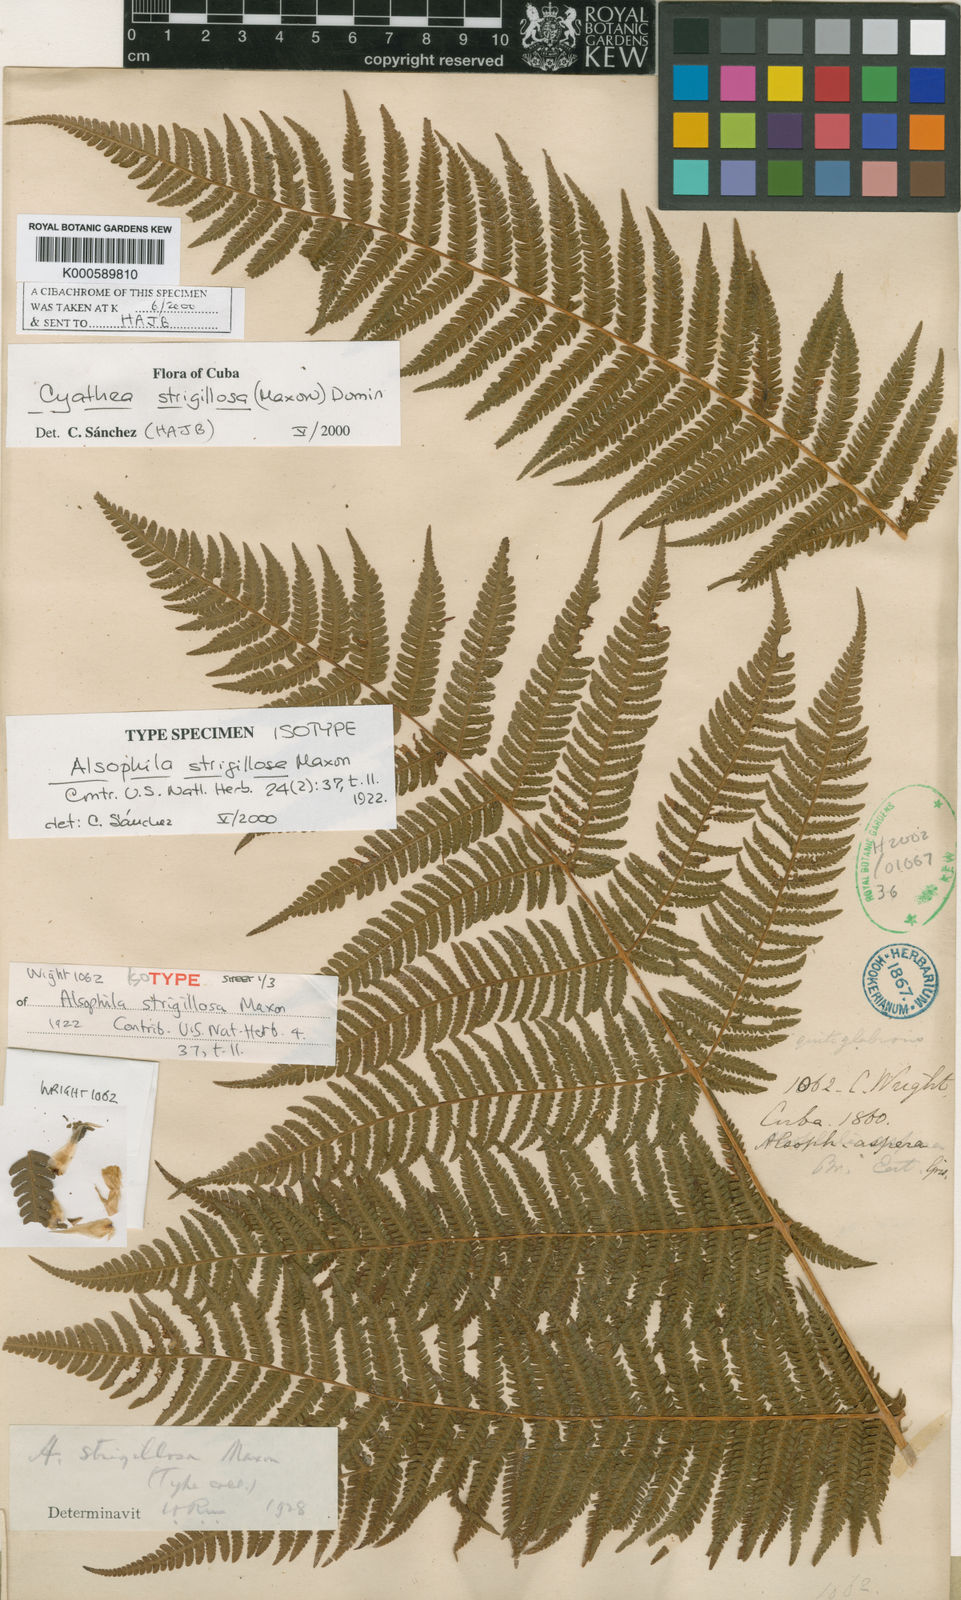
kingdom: Plantae
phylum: Tracheophyta
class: Polypodiopsida
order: Cyatheales
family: Cyatheaceae
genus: Cyathea
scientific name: Cyathea strigillosa
